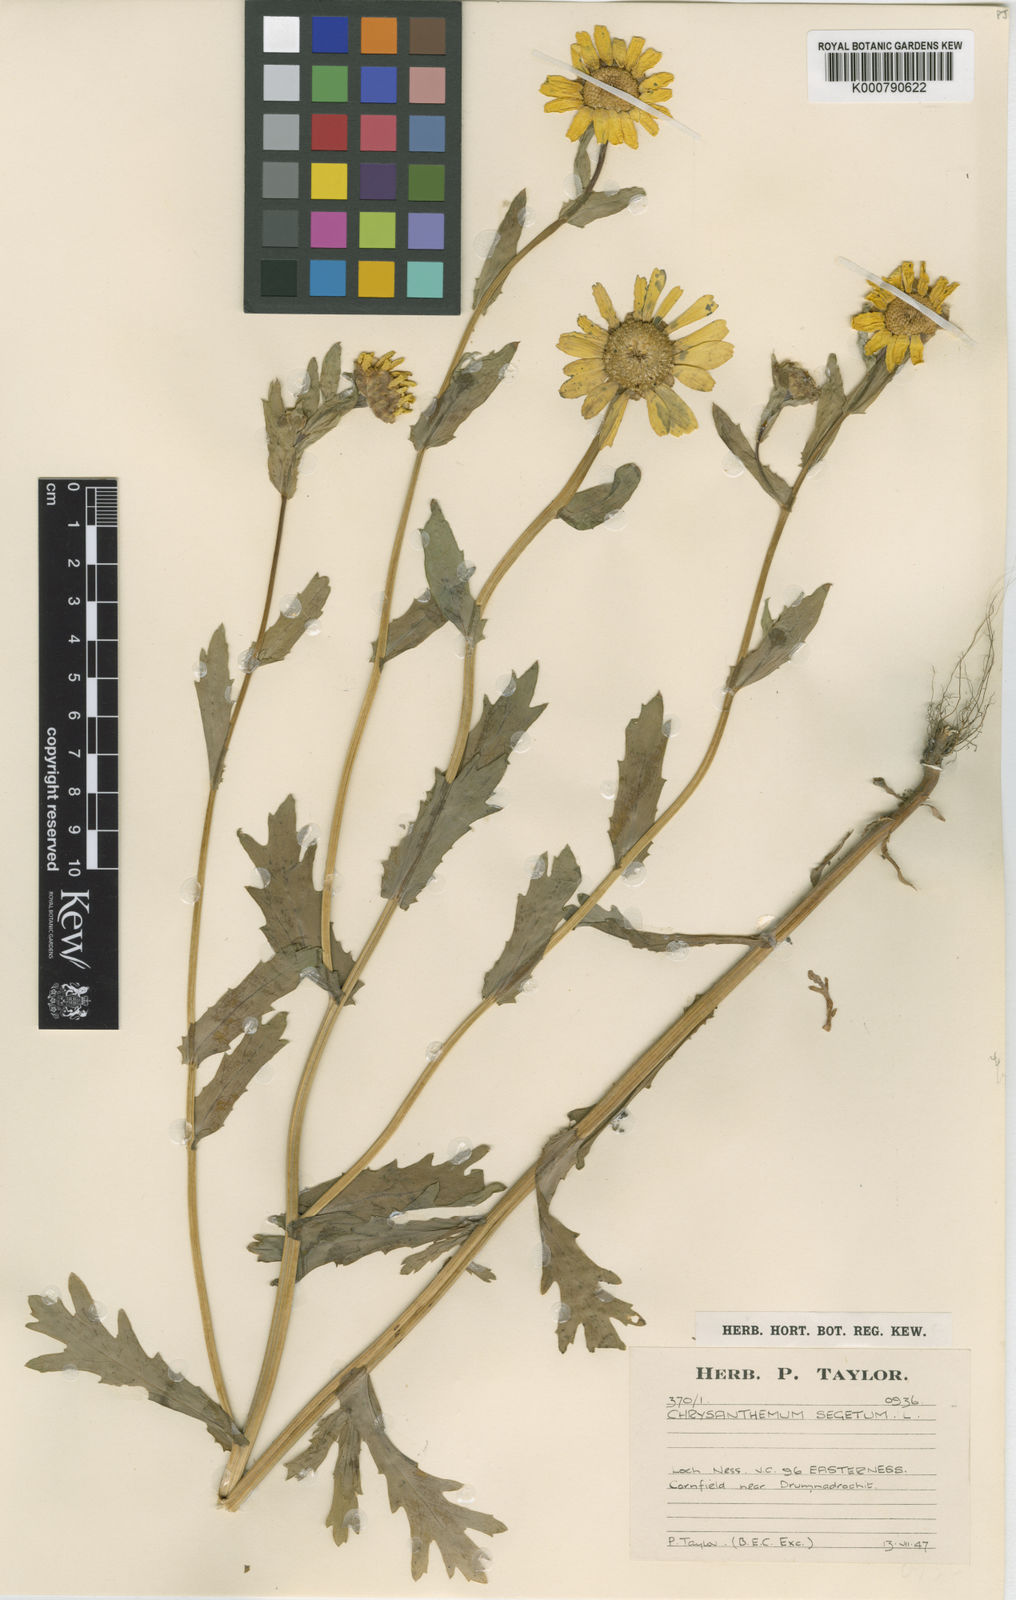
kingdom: Plantae
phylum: Tracheophyta
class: Magnoliopsida
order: Asterales
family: Asteraceae
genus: Glebionis
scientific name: Glebionis segetum
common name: Corndaisy
